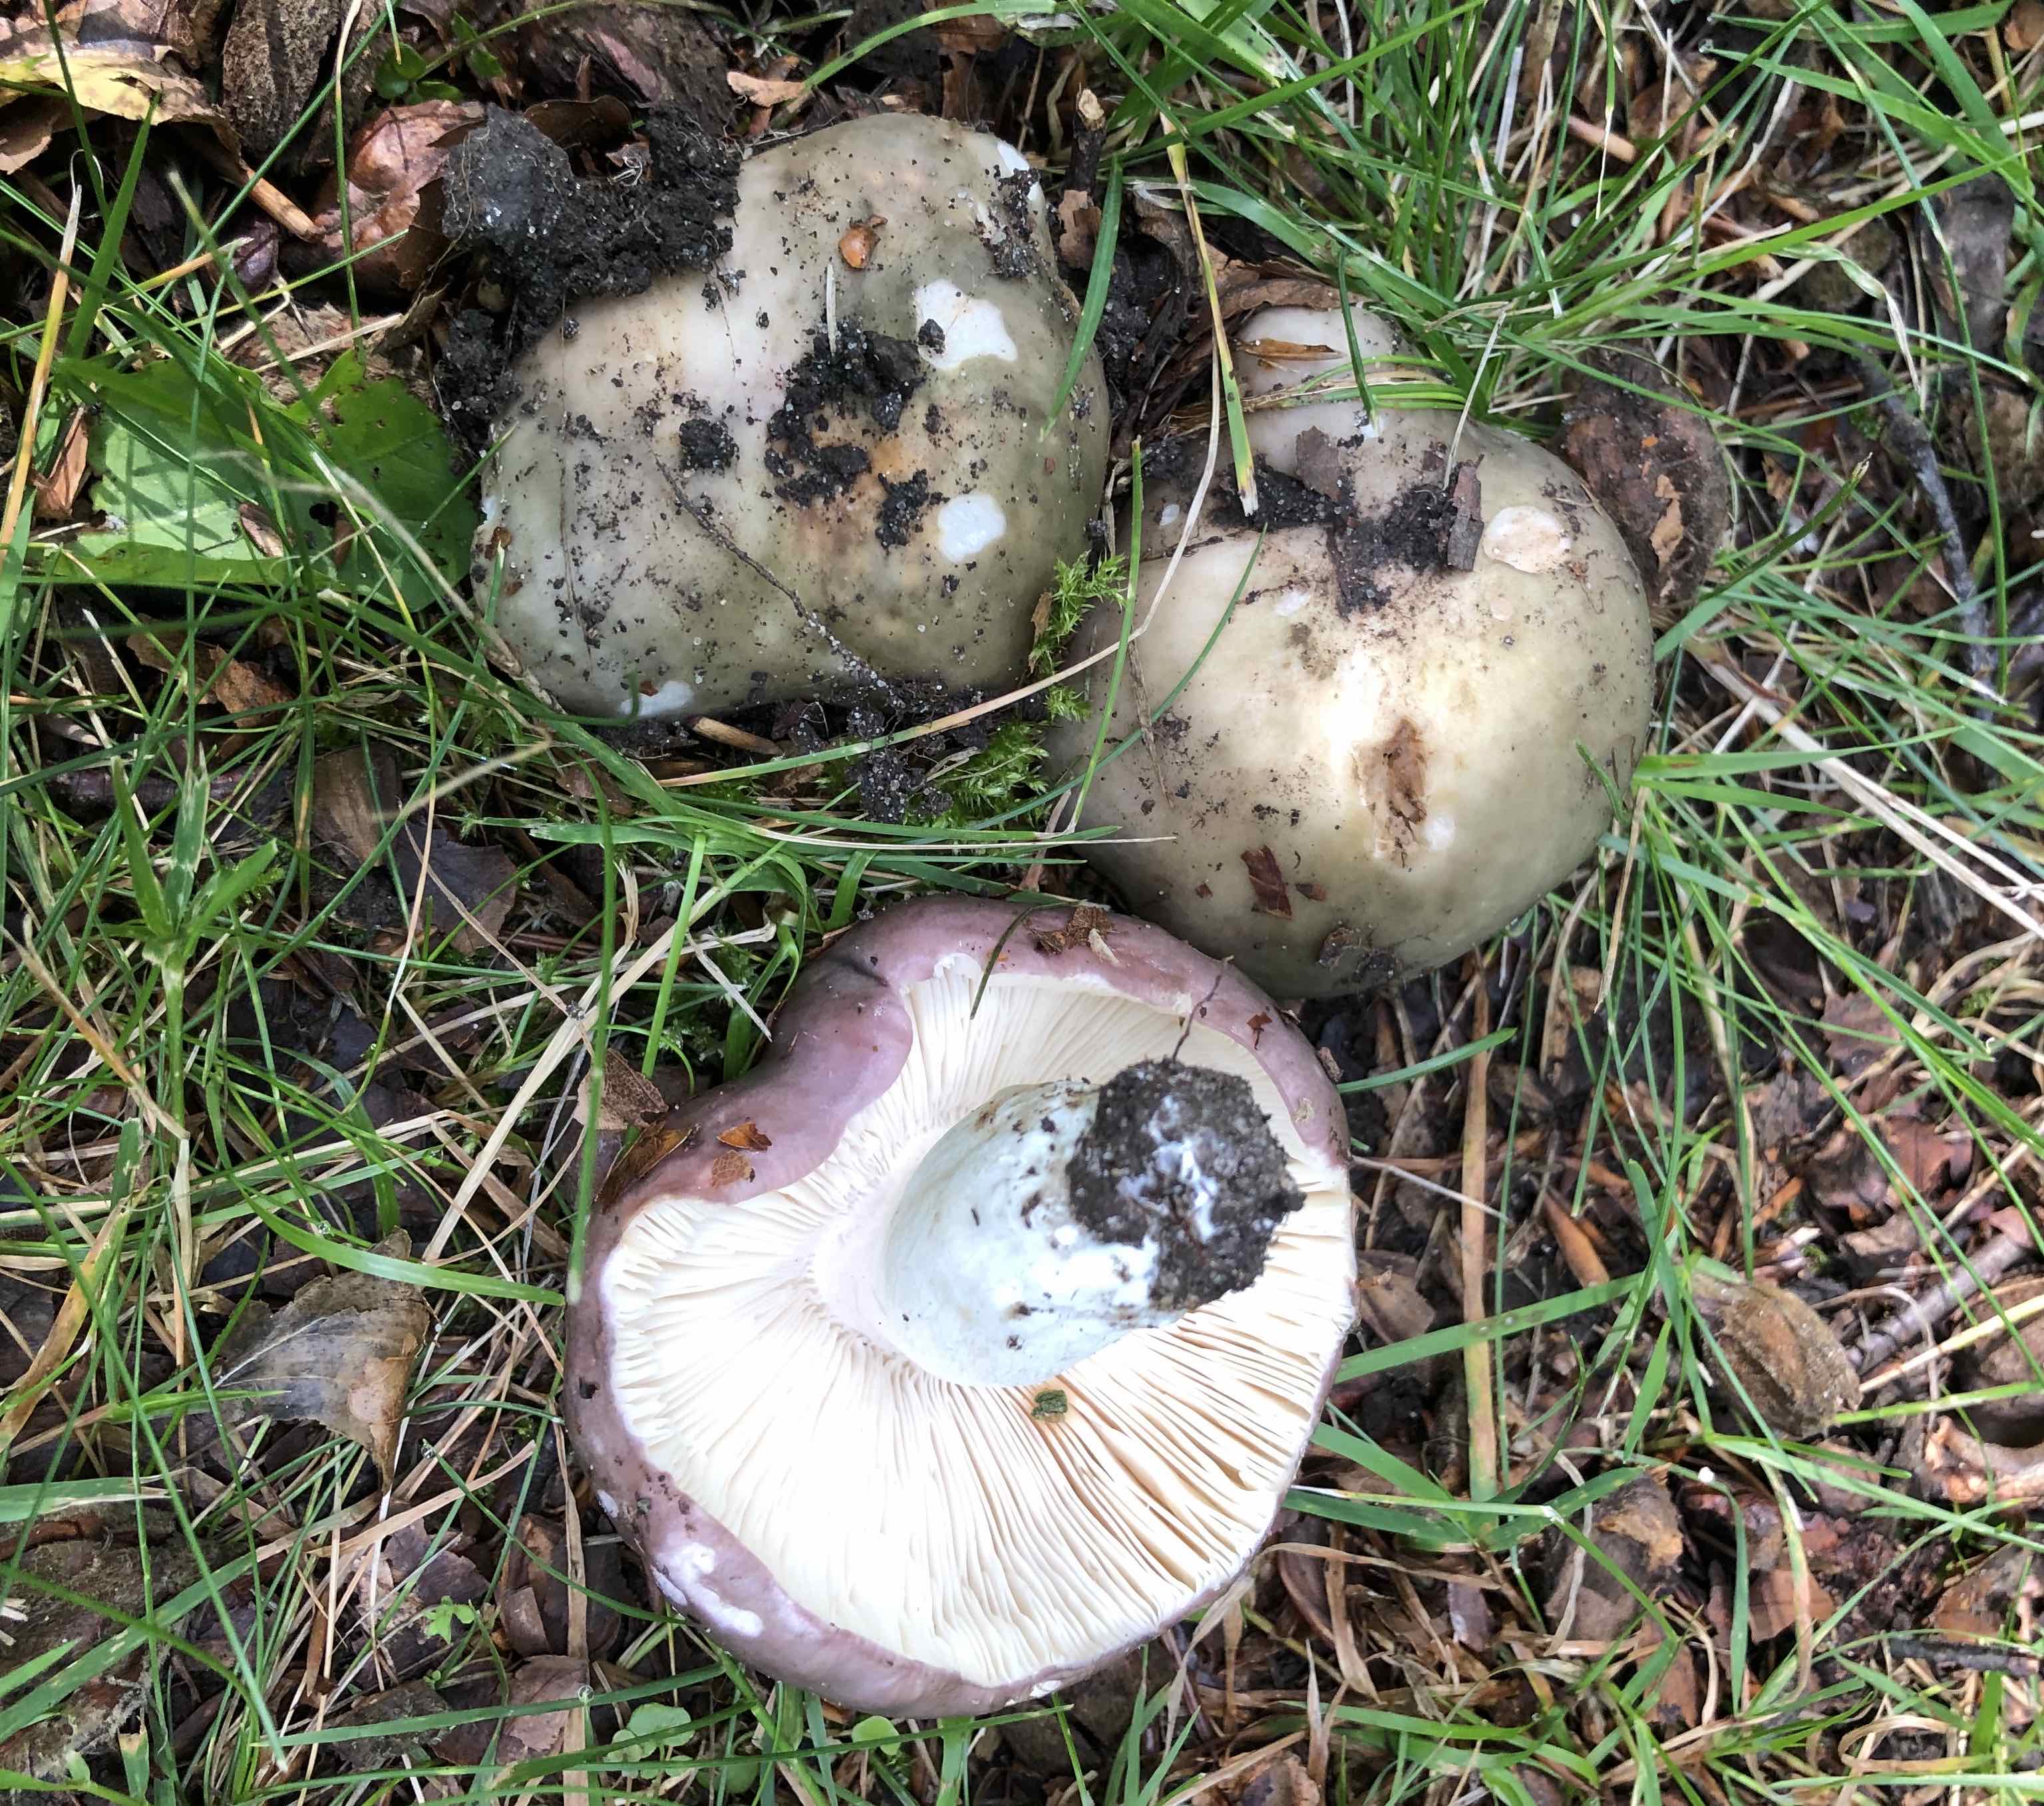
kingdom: Fungi
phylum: Basidiomycota
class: Agaricomycetes
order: Russulales
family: Russulaceae
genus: Russula
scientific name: Russula cyanoxantha
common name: broget skørhat
